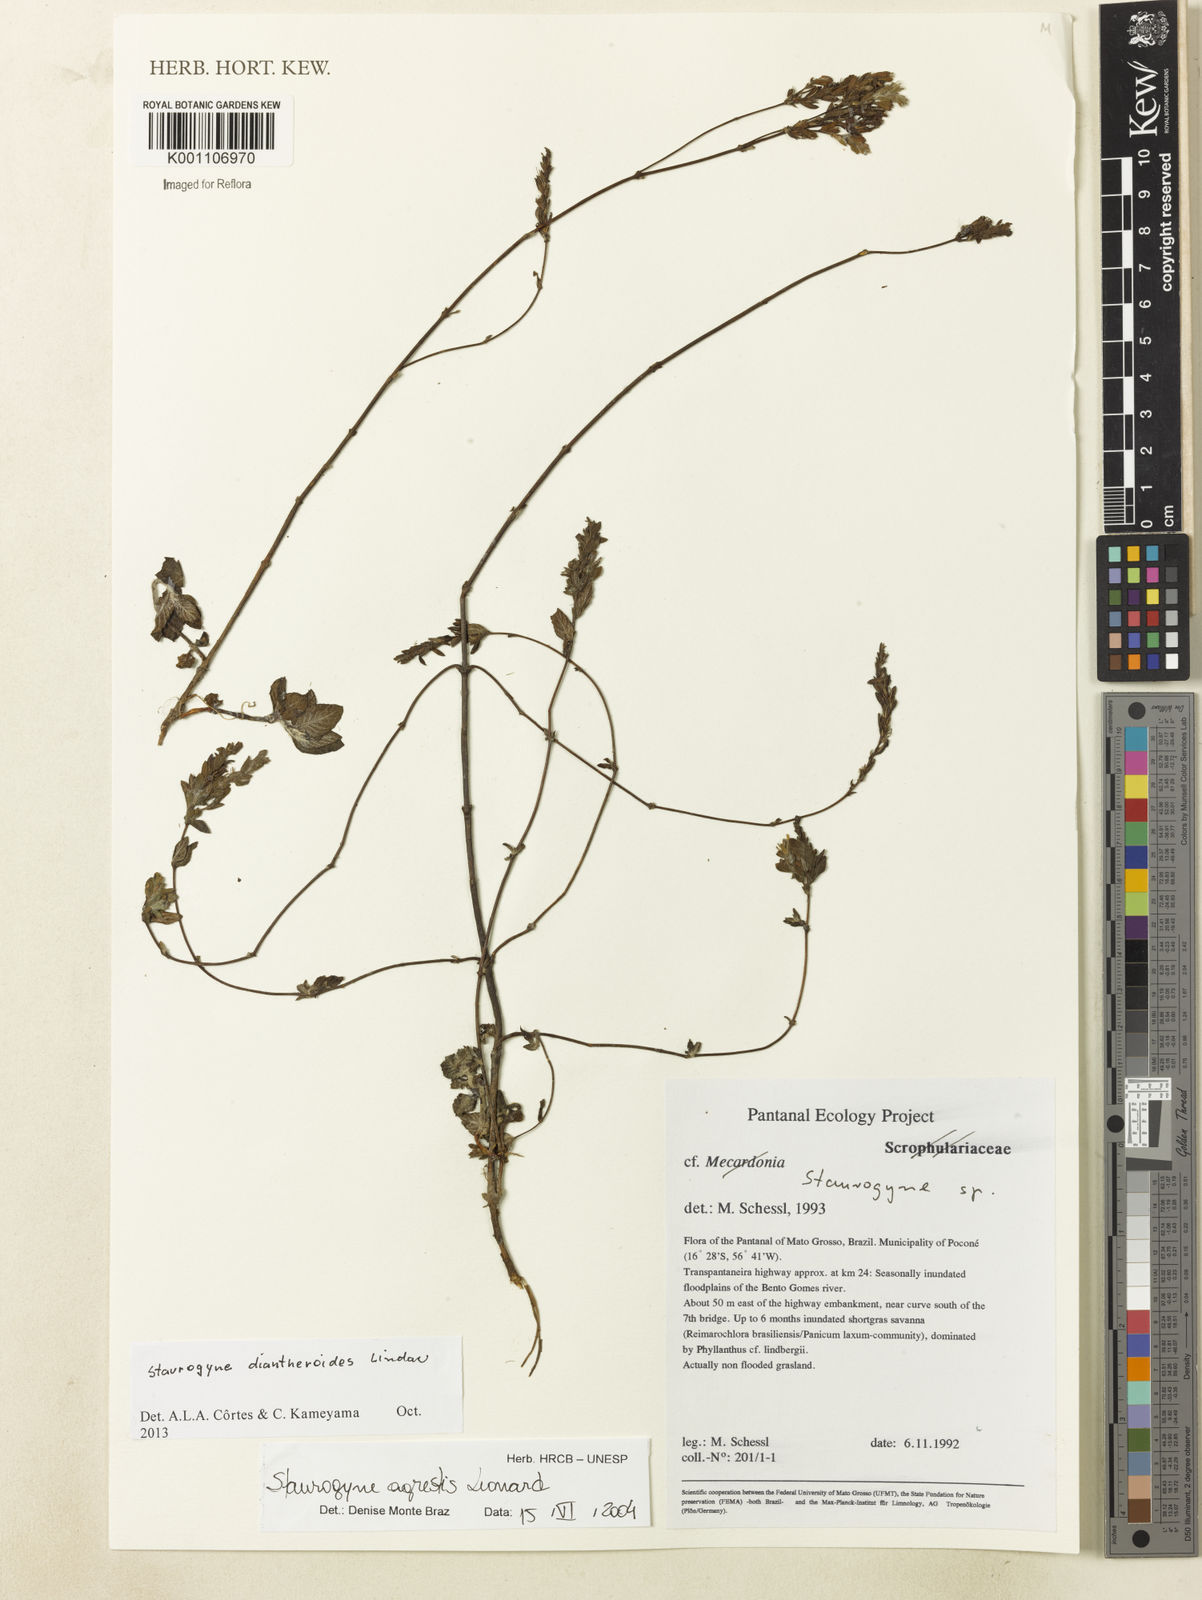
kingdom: Plantae
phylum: Tracheophyta
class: Magnoliopsida
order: Lamiales
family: Acanthaceae
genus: Staurogyne
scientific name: Staurogyne diantheroides
